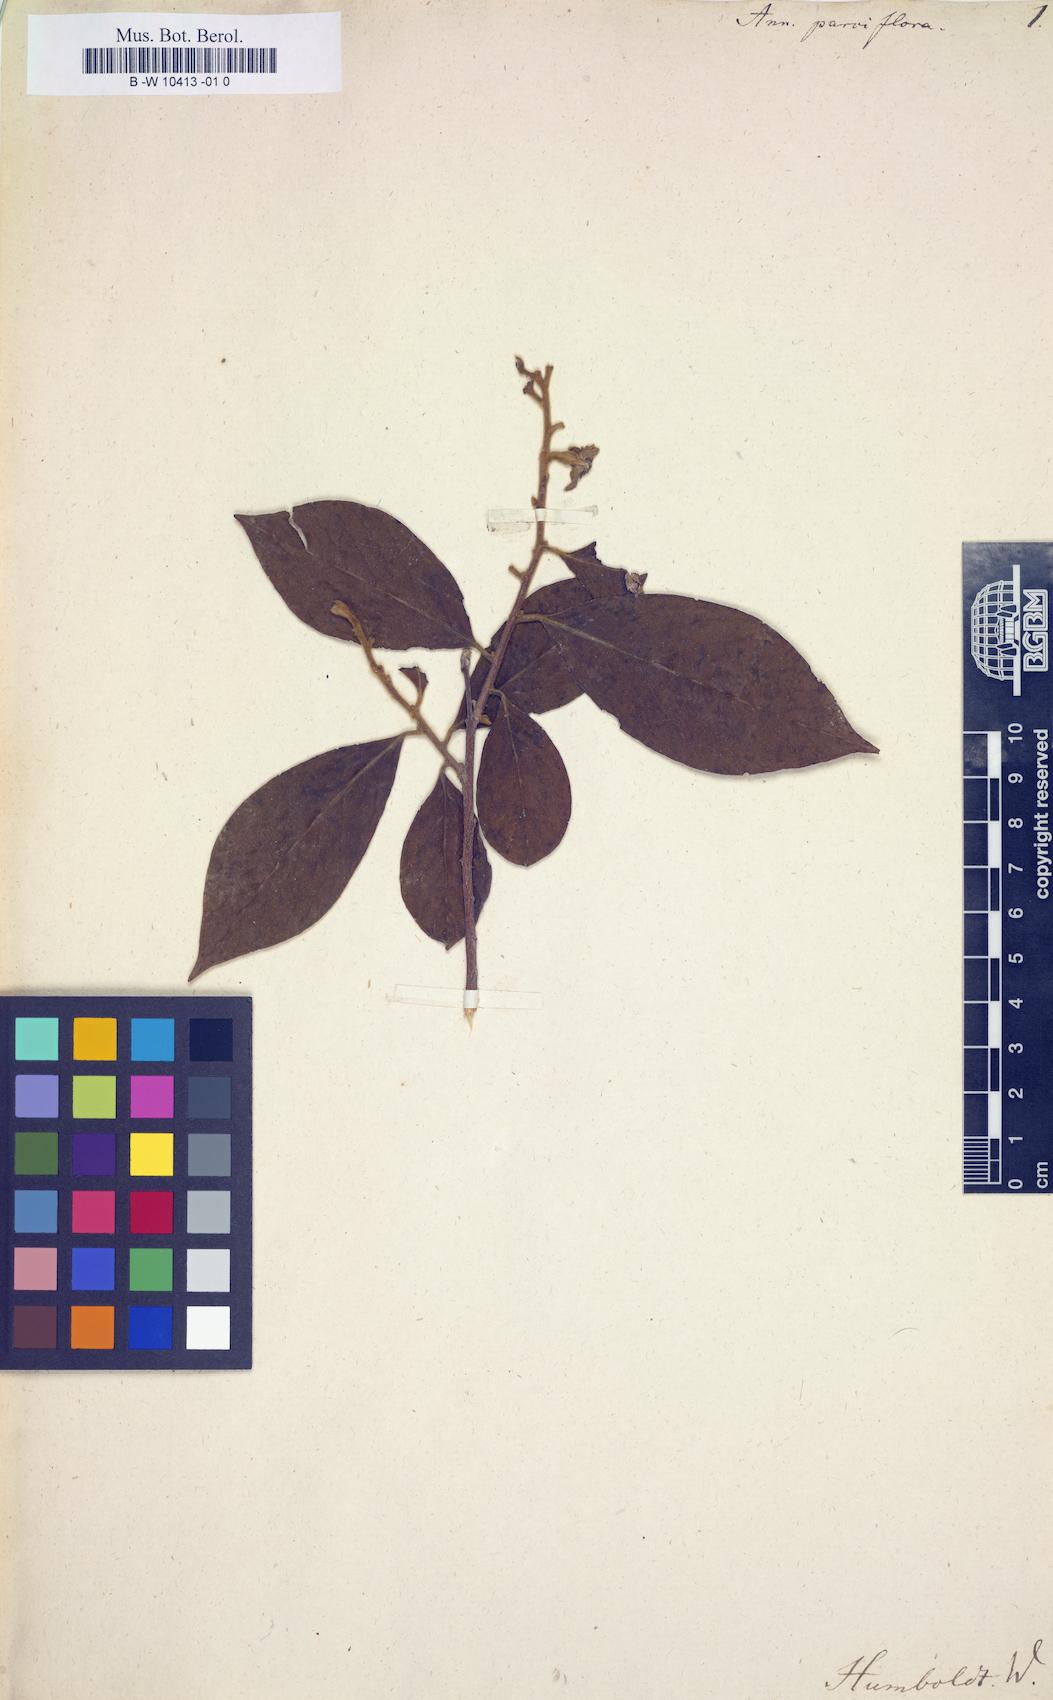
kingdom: Plantae
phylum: Tracheophyta
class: Magnoliopsida
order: Magnoliales
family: Annonaceae
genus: Annona
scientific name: Annona mucosa
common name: Sugar apple
